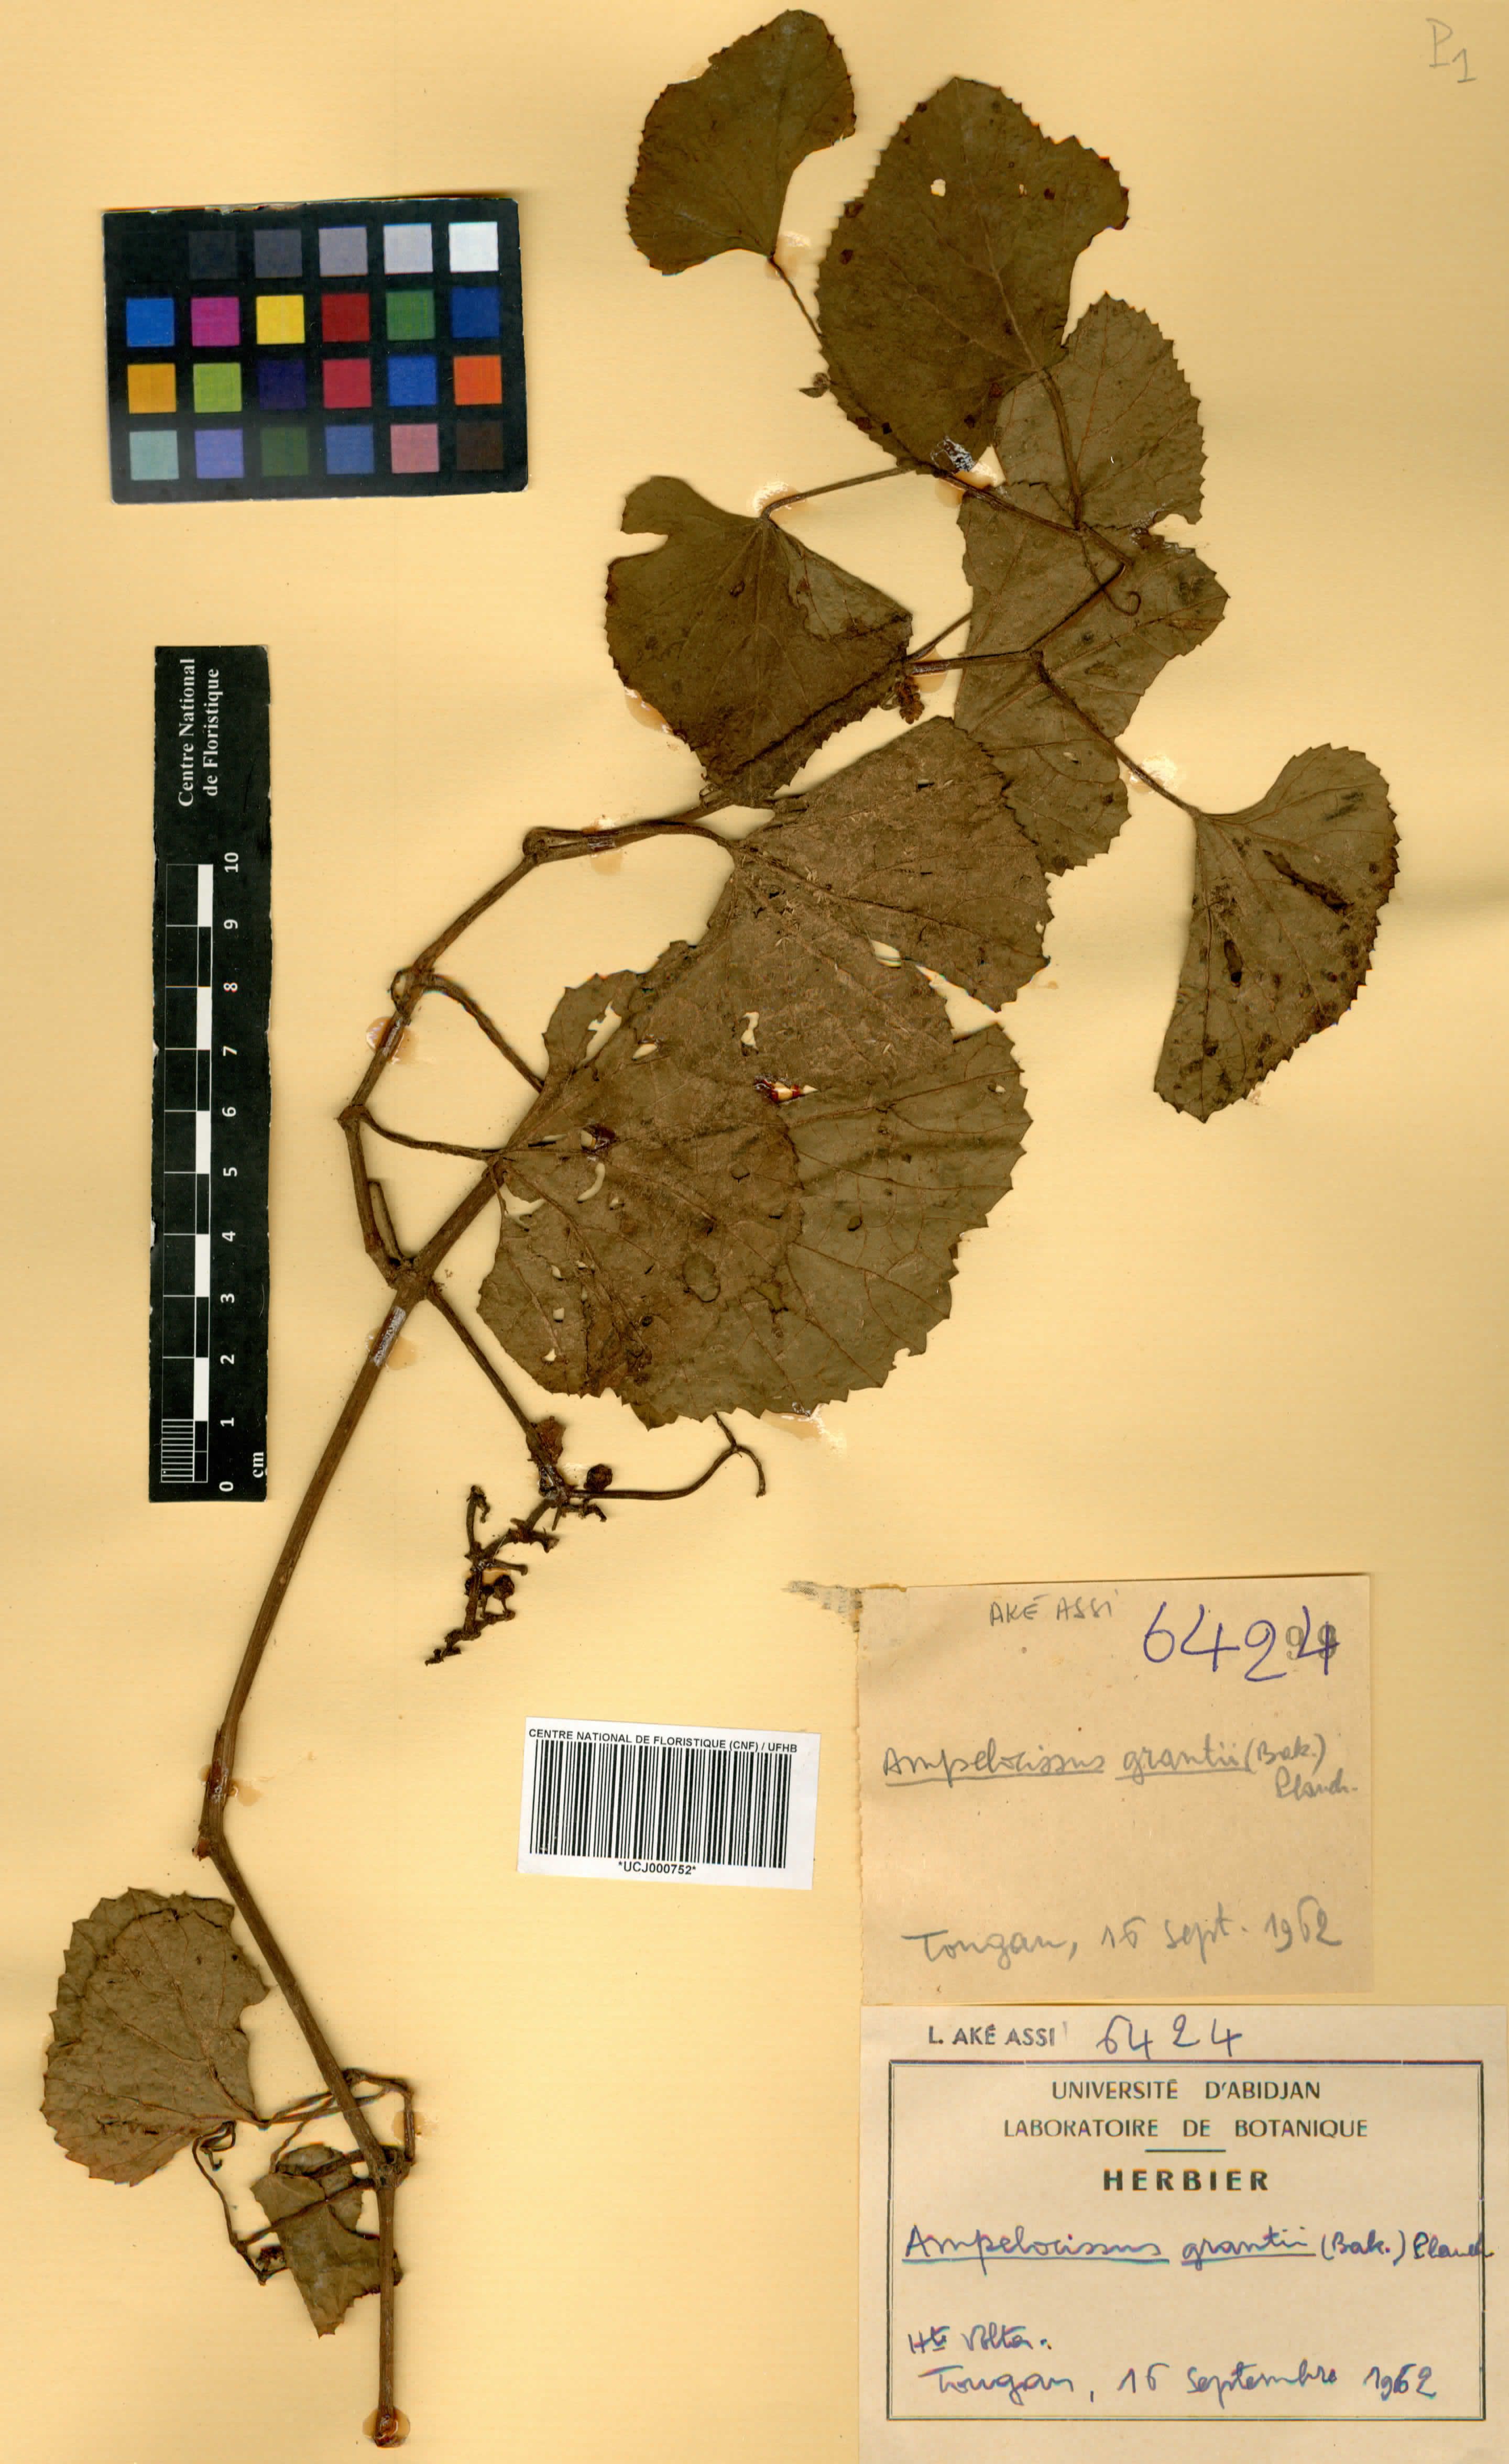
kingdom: Plantae
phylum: Tracheophyta
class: Magnoliopsida
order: Vitales
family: Vitaceae
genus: Ampelocissus
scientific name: Ampelocissus africana
